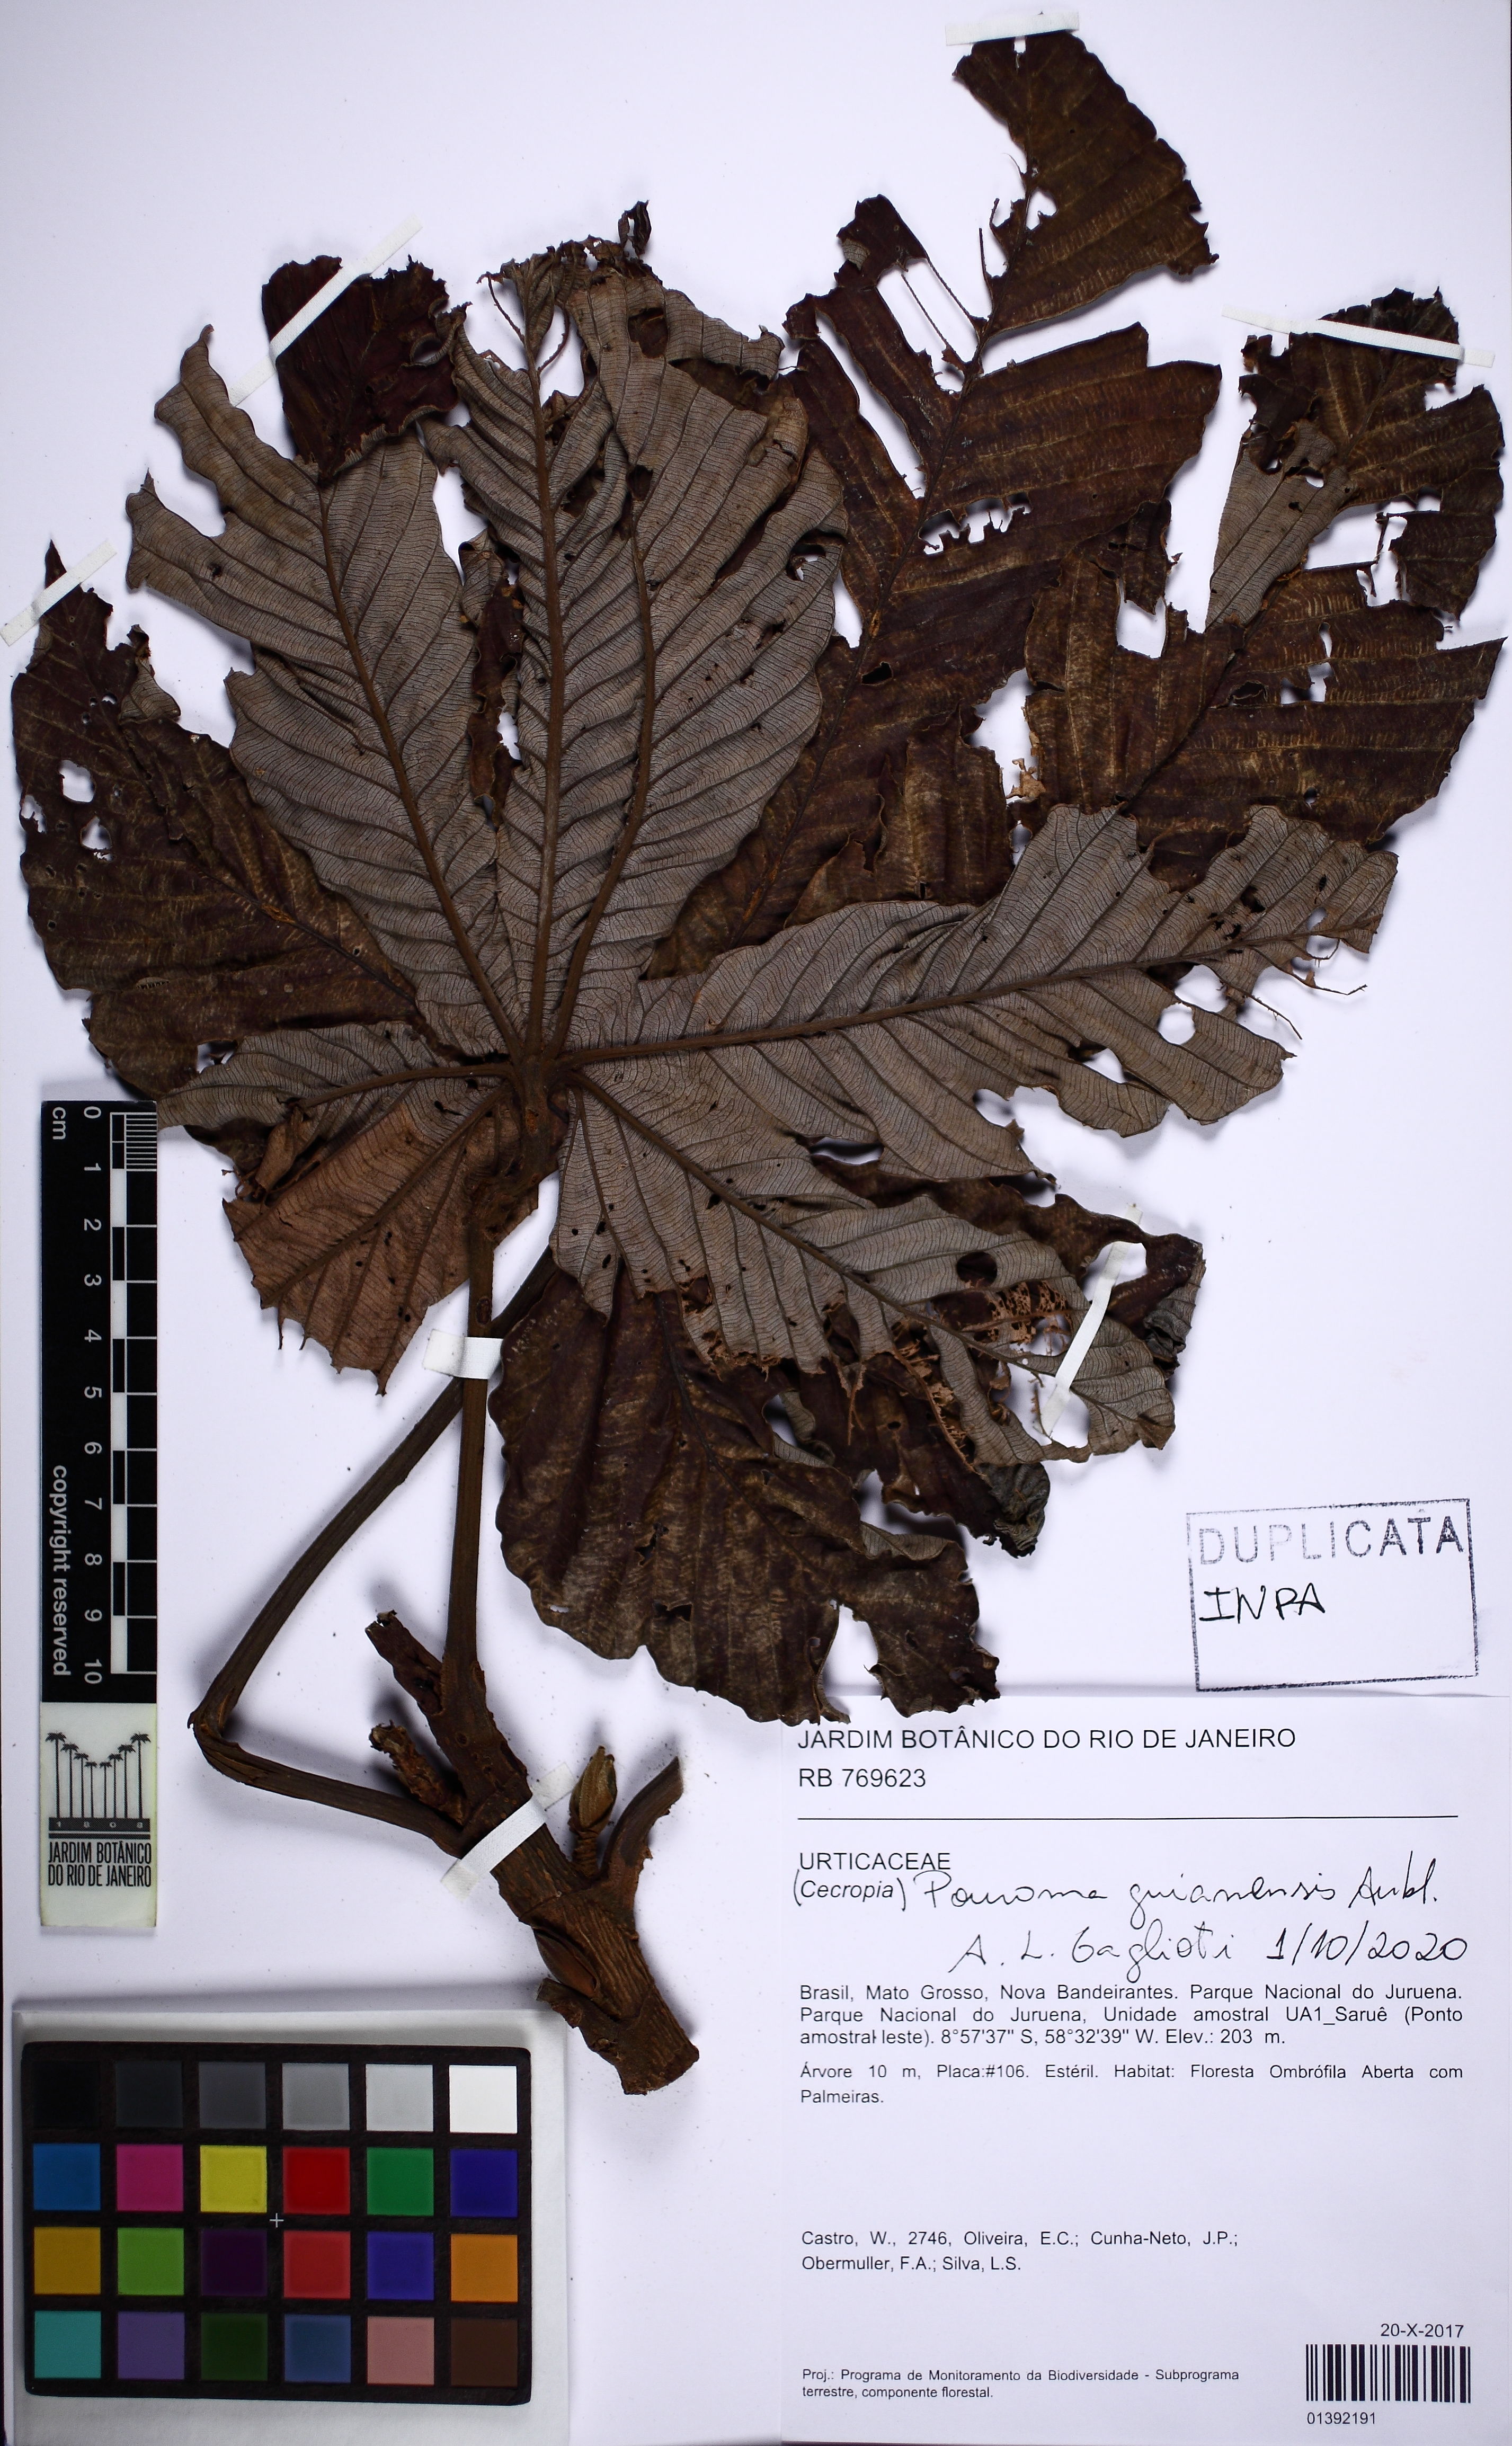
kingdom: Plantae
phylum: Tracheophyta
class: Magnoliopsida
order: Rosales
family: Urticaceae
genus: Pourouma
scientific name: Pourouma guianensis
